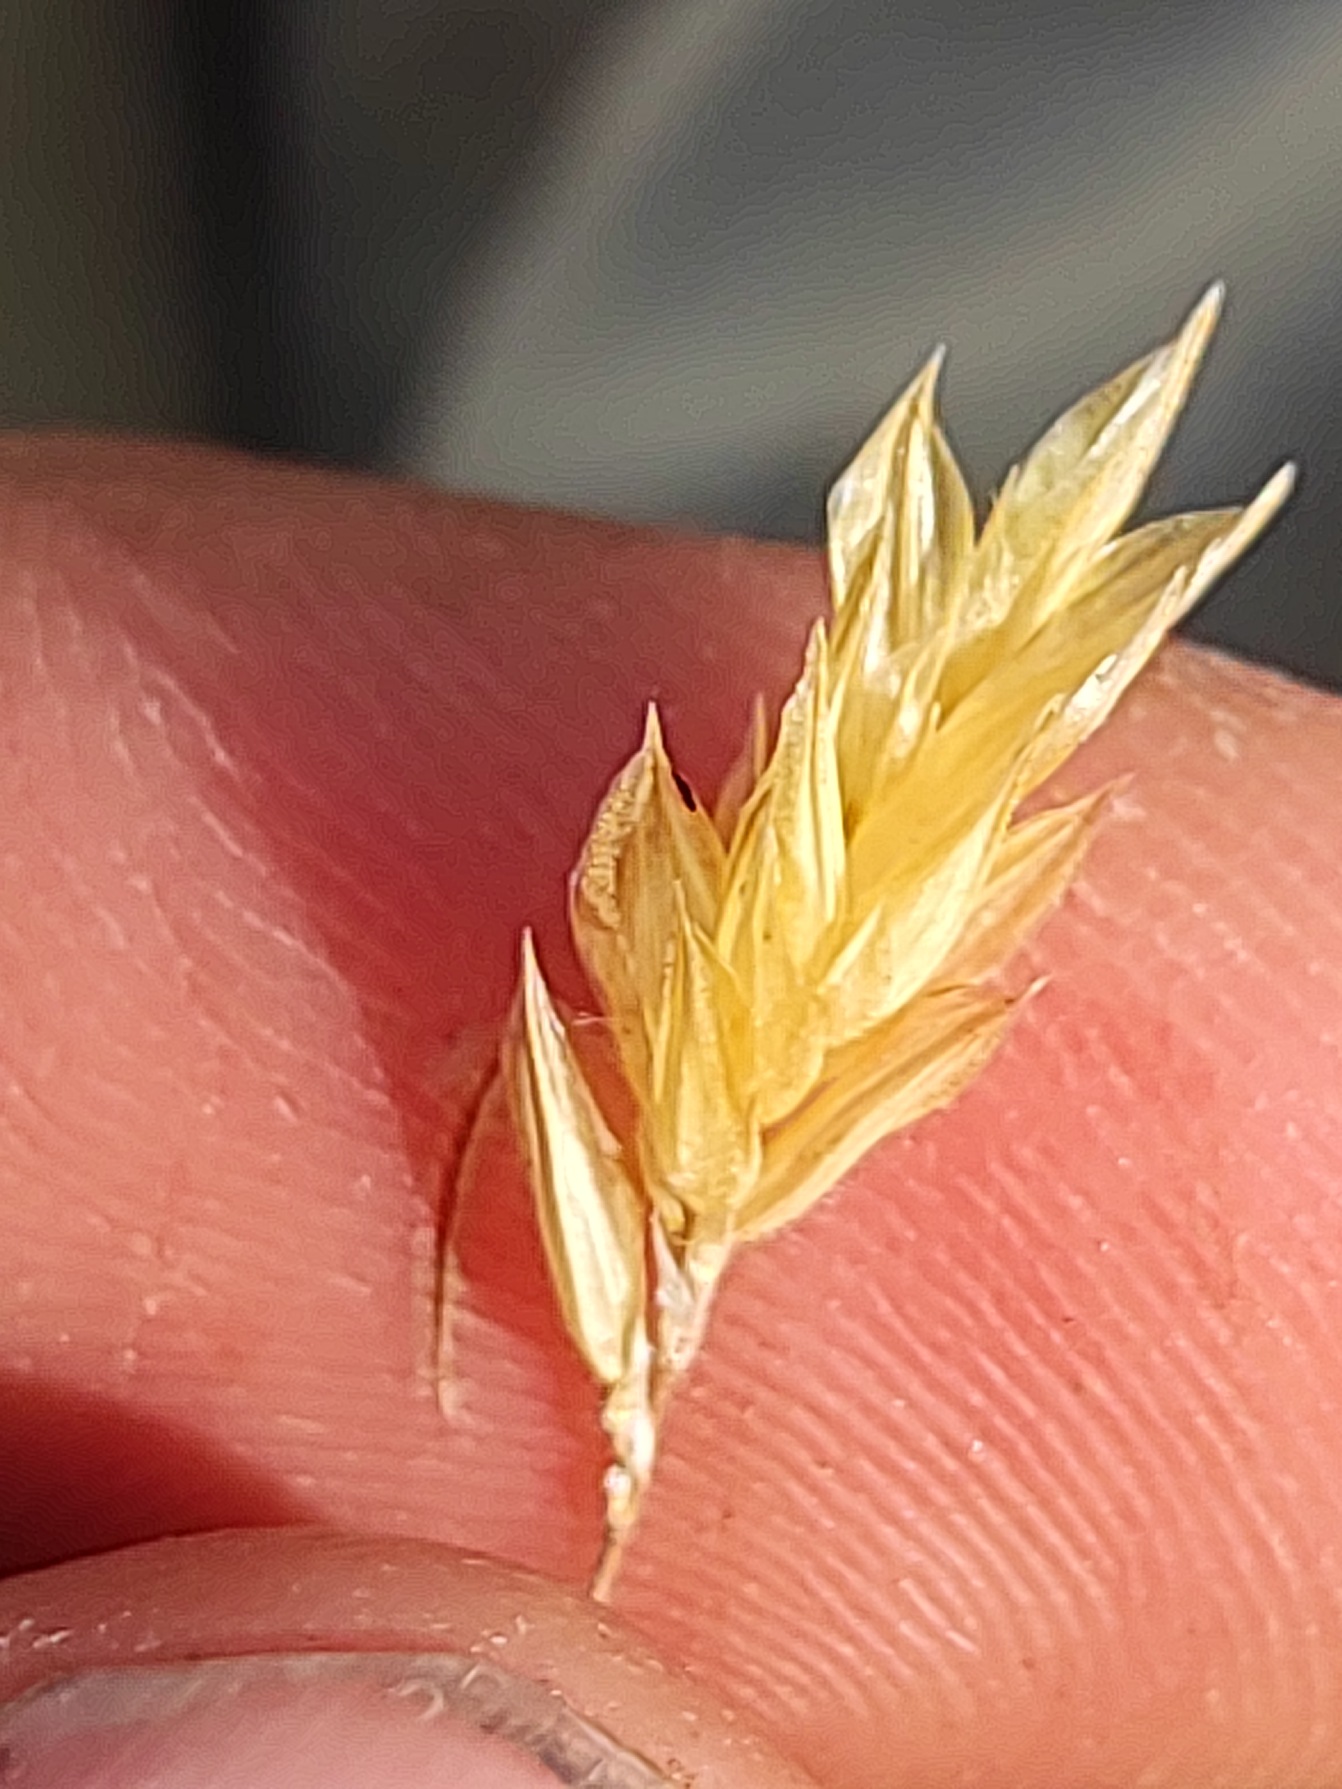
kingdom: Plantae
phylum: Tracheophyta
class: Liliopsida
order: Poales
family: Poaceae
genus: Anthoxanthum
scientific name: Anthoxanthum odoratum
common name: Vellugtende gulaks
